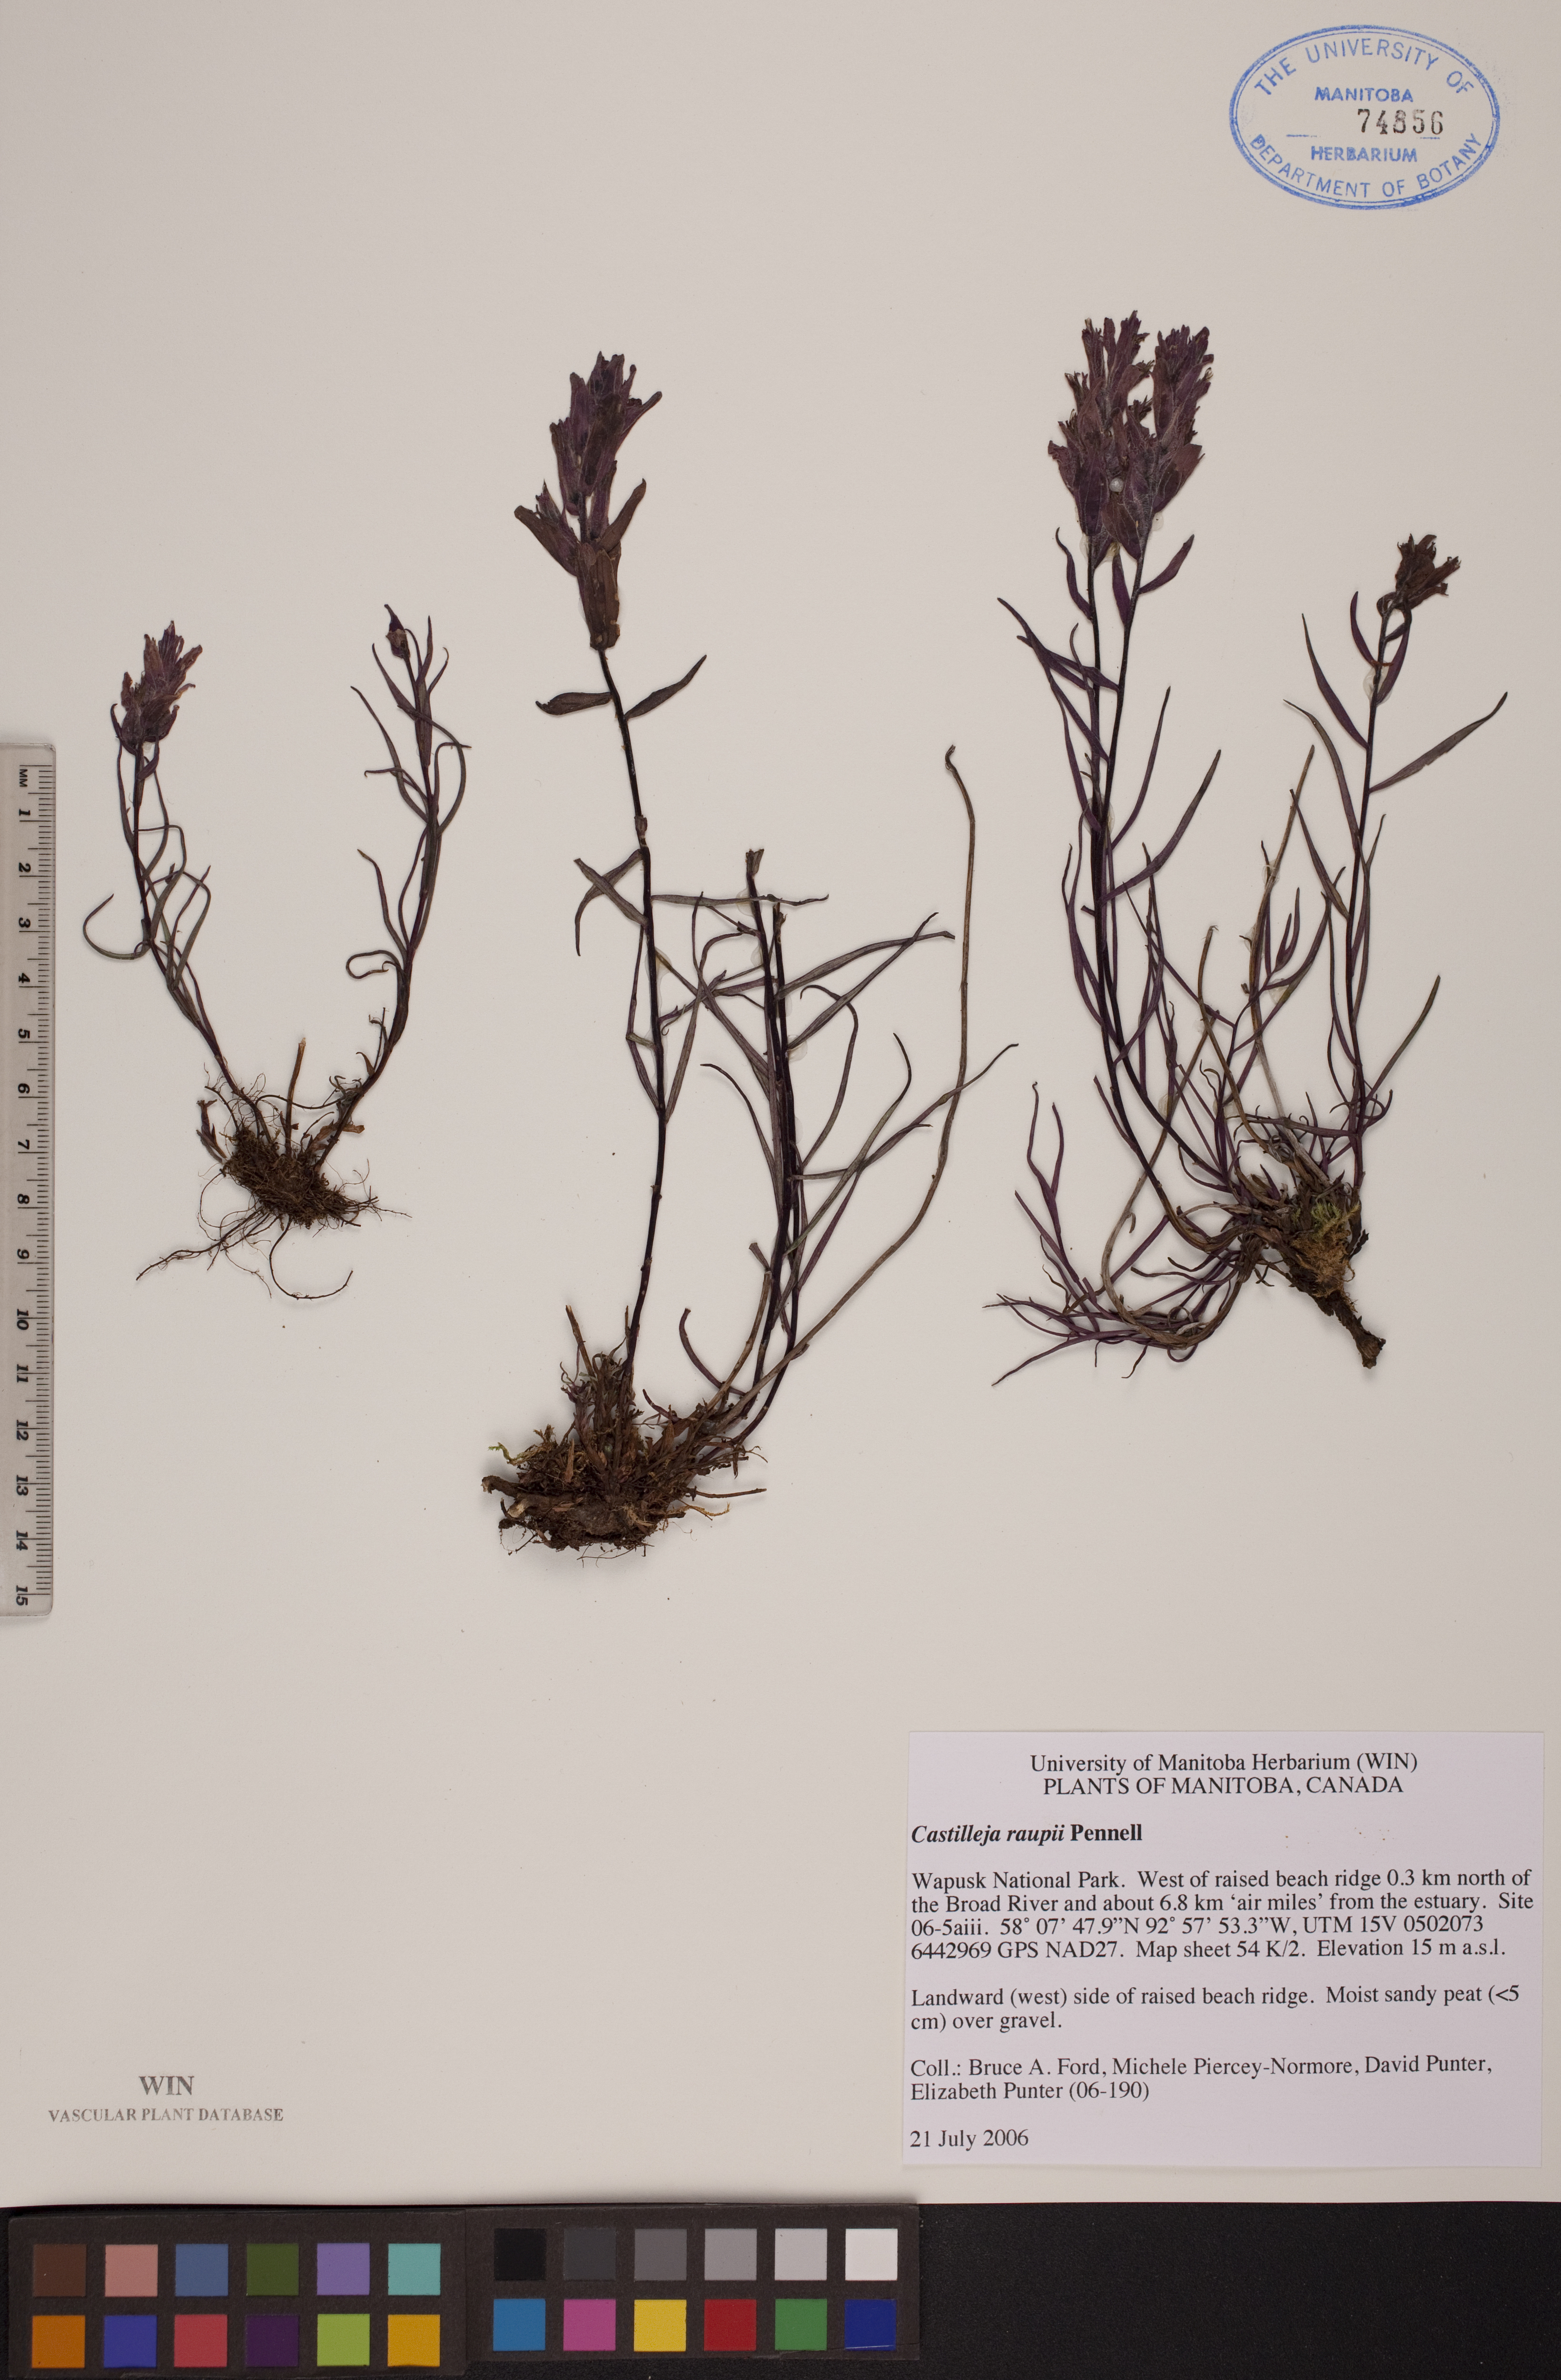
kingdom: Plantae
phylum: Tracheophyta
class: Magnoliopsida
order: Lamiales
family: Orobanchaceae
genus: Castilleja
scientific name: Castilleja raupii
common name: Raup's paintbrush
